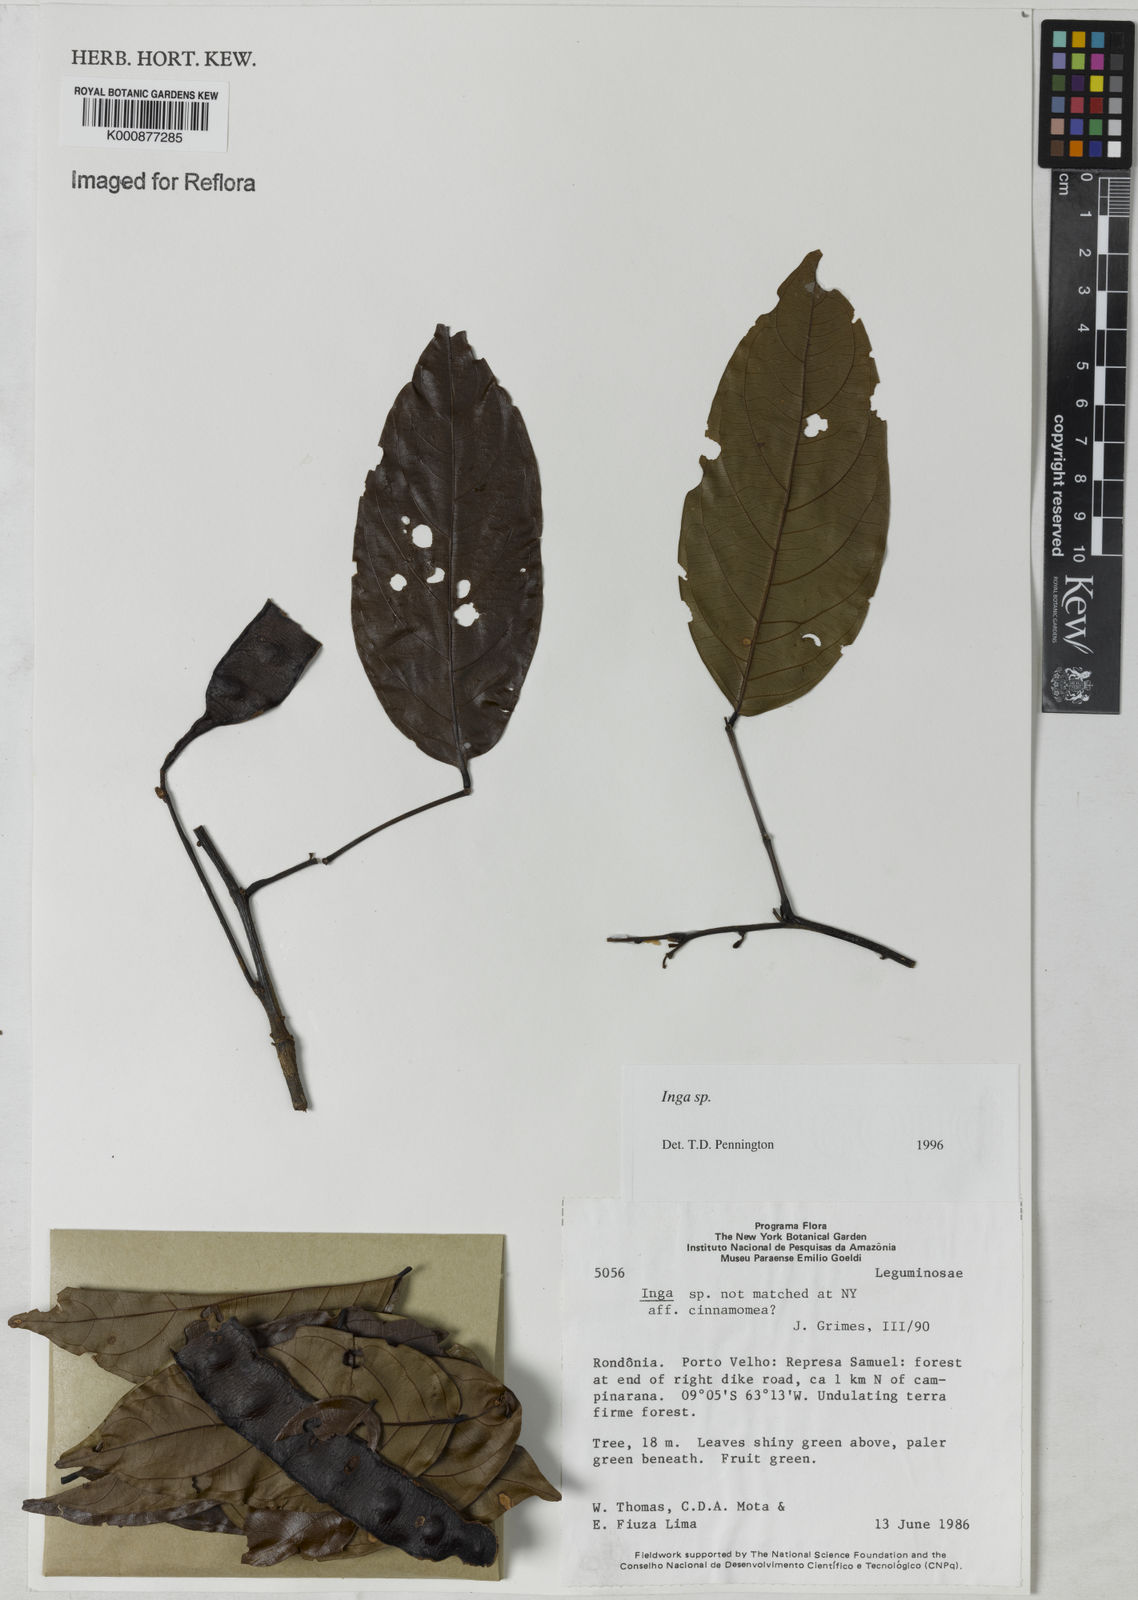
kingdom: Plantae
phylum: Tracheophyta
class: Magnoliopsida
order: Fabales
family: Fabaceae
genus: Inga
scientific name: Inga
